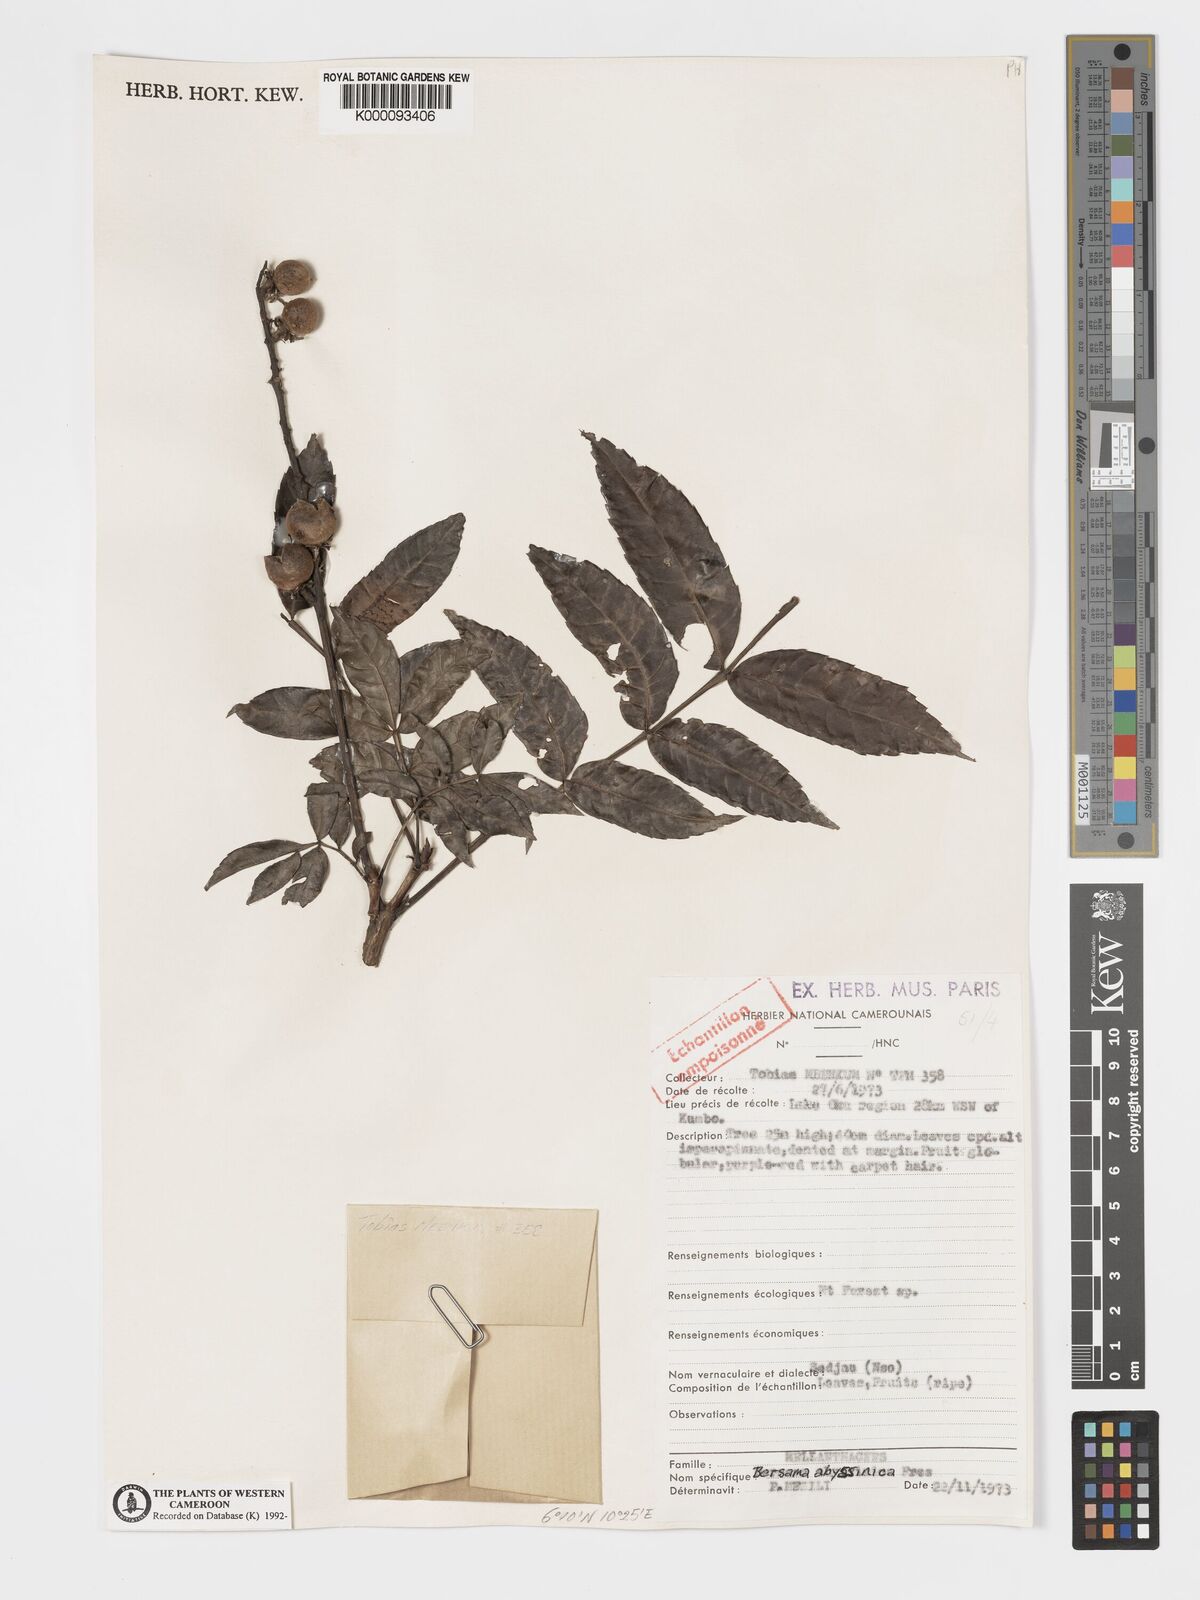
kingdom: Plantae
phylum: Tracheophyta
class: Magnoliopsida
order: Geraniales
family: Melianthaceae
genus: Bersama
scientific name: Bersama abyssinica
